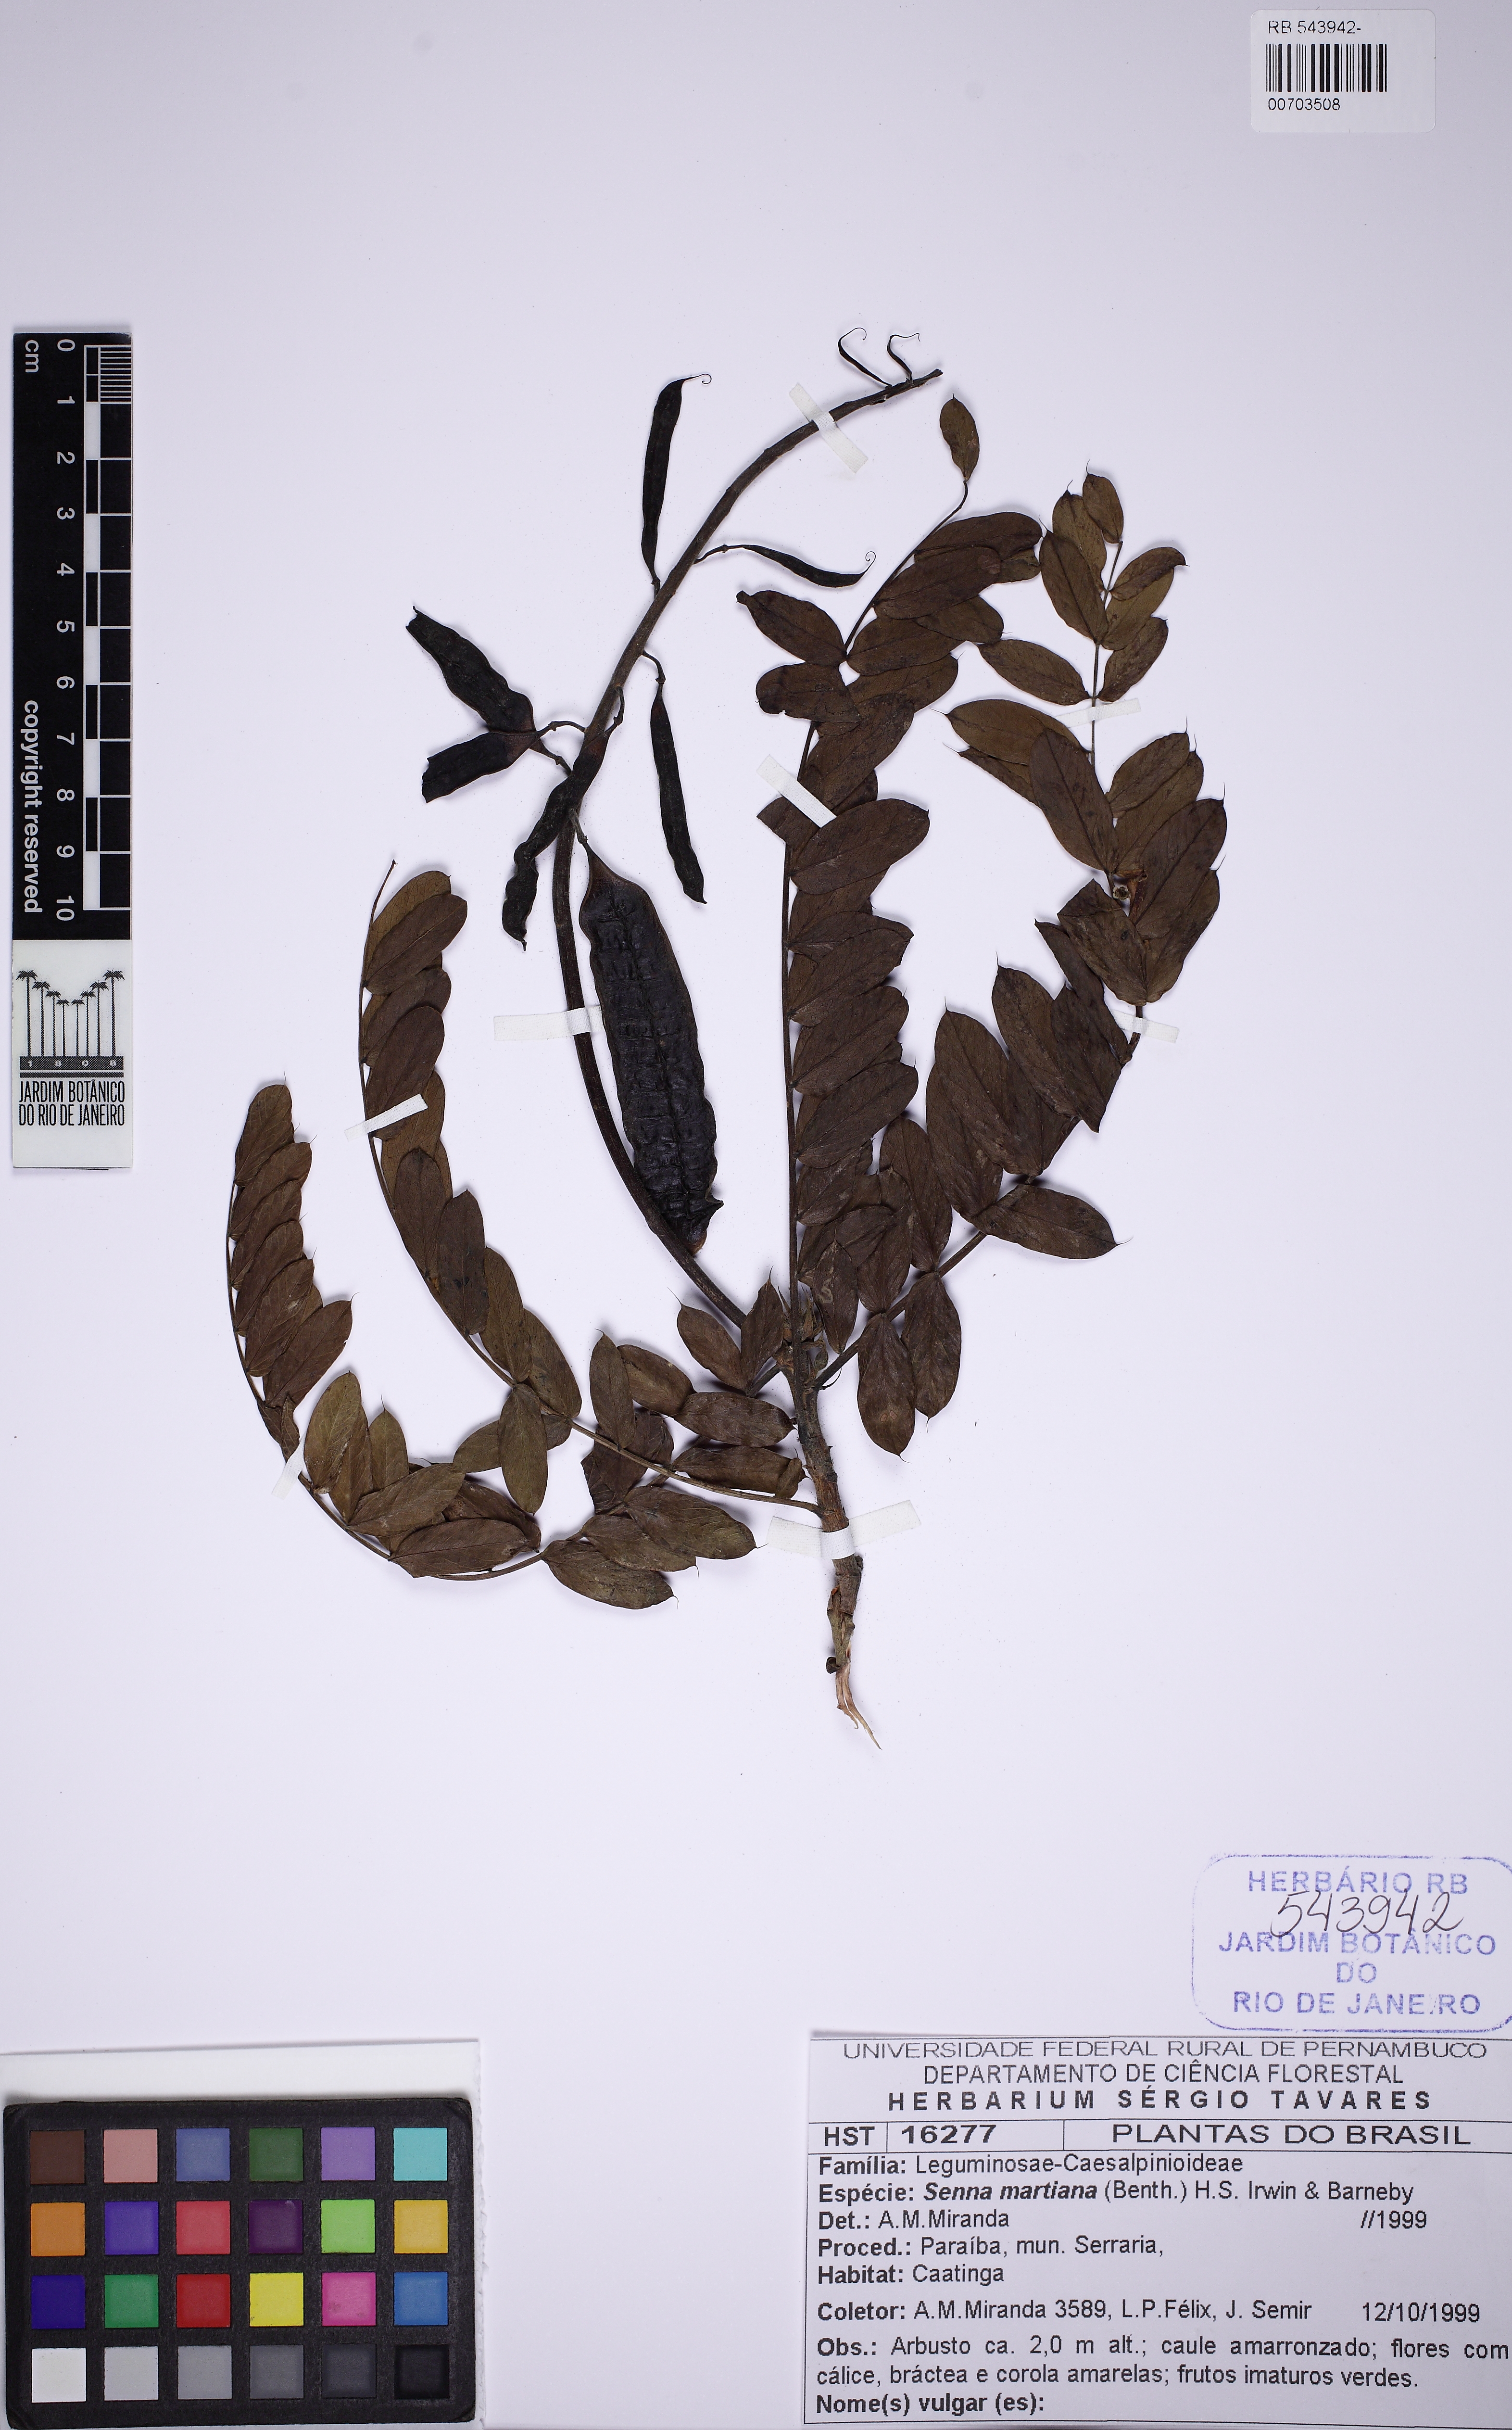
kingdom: Plantae
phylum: Tracheophyta
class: Magnoliopsida
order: Fabales
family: Fabaceae
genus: Senna
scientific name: Senna martiana
